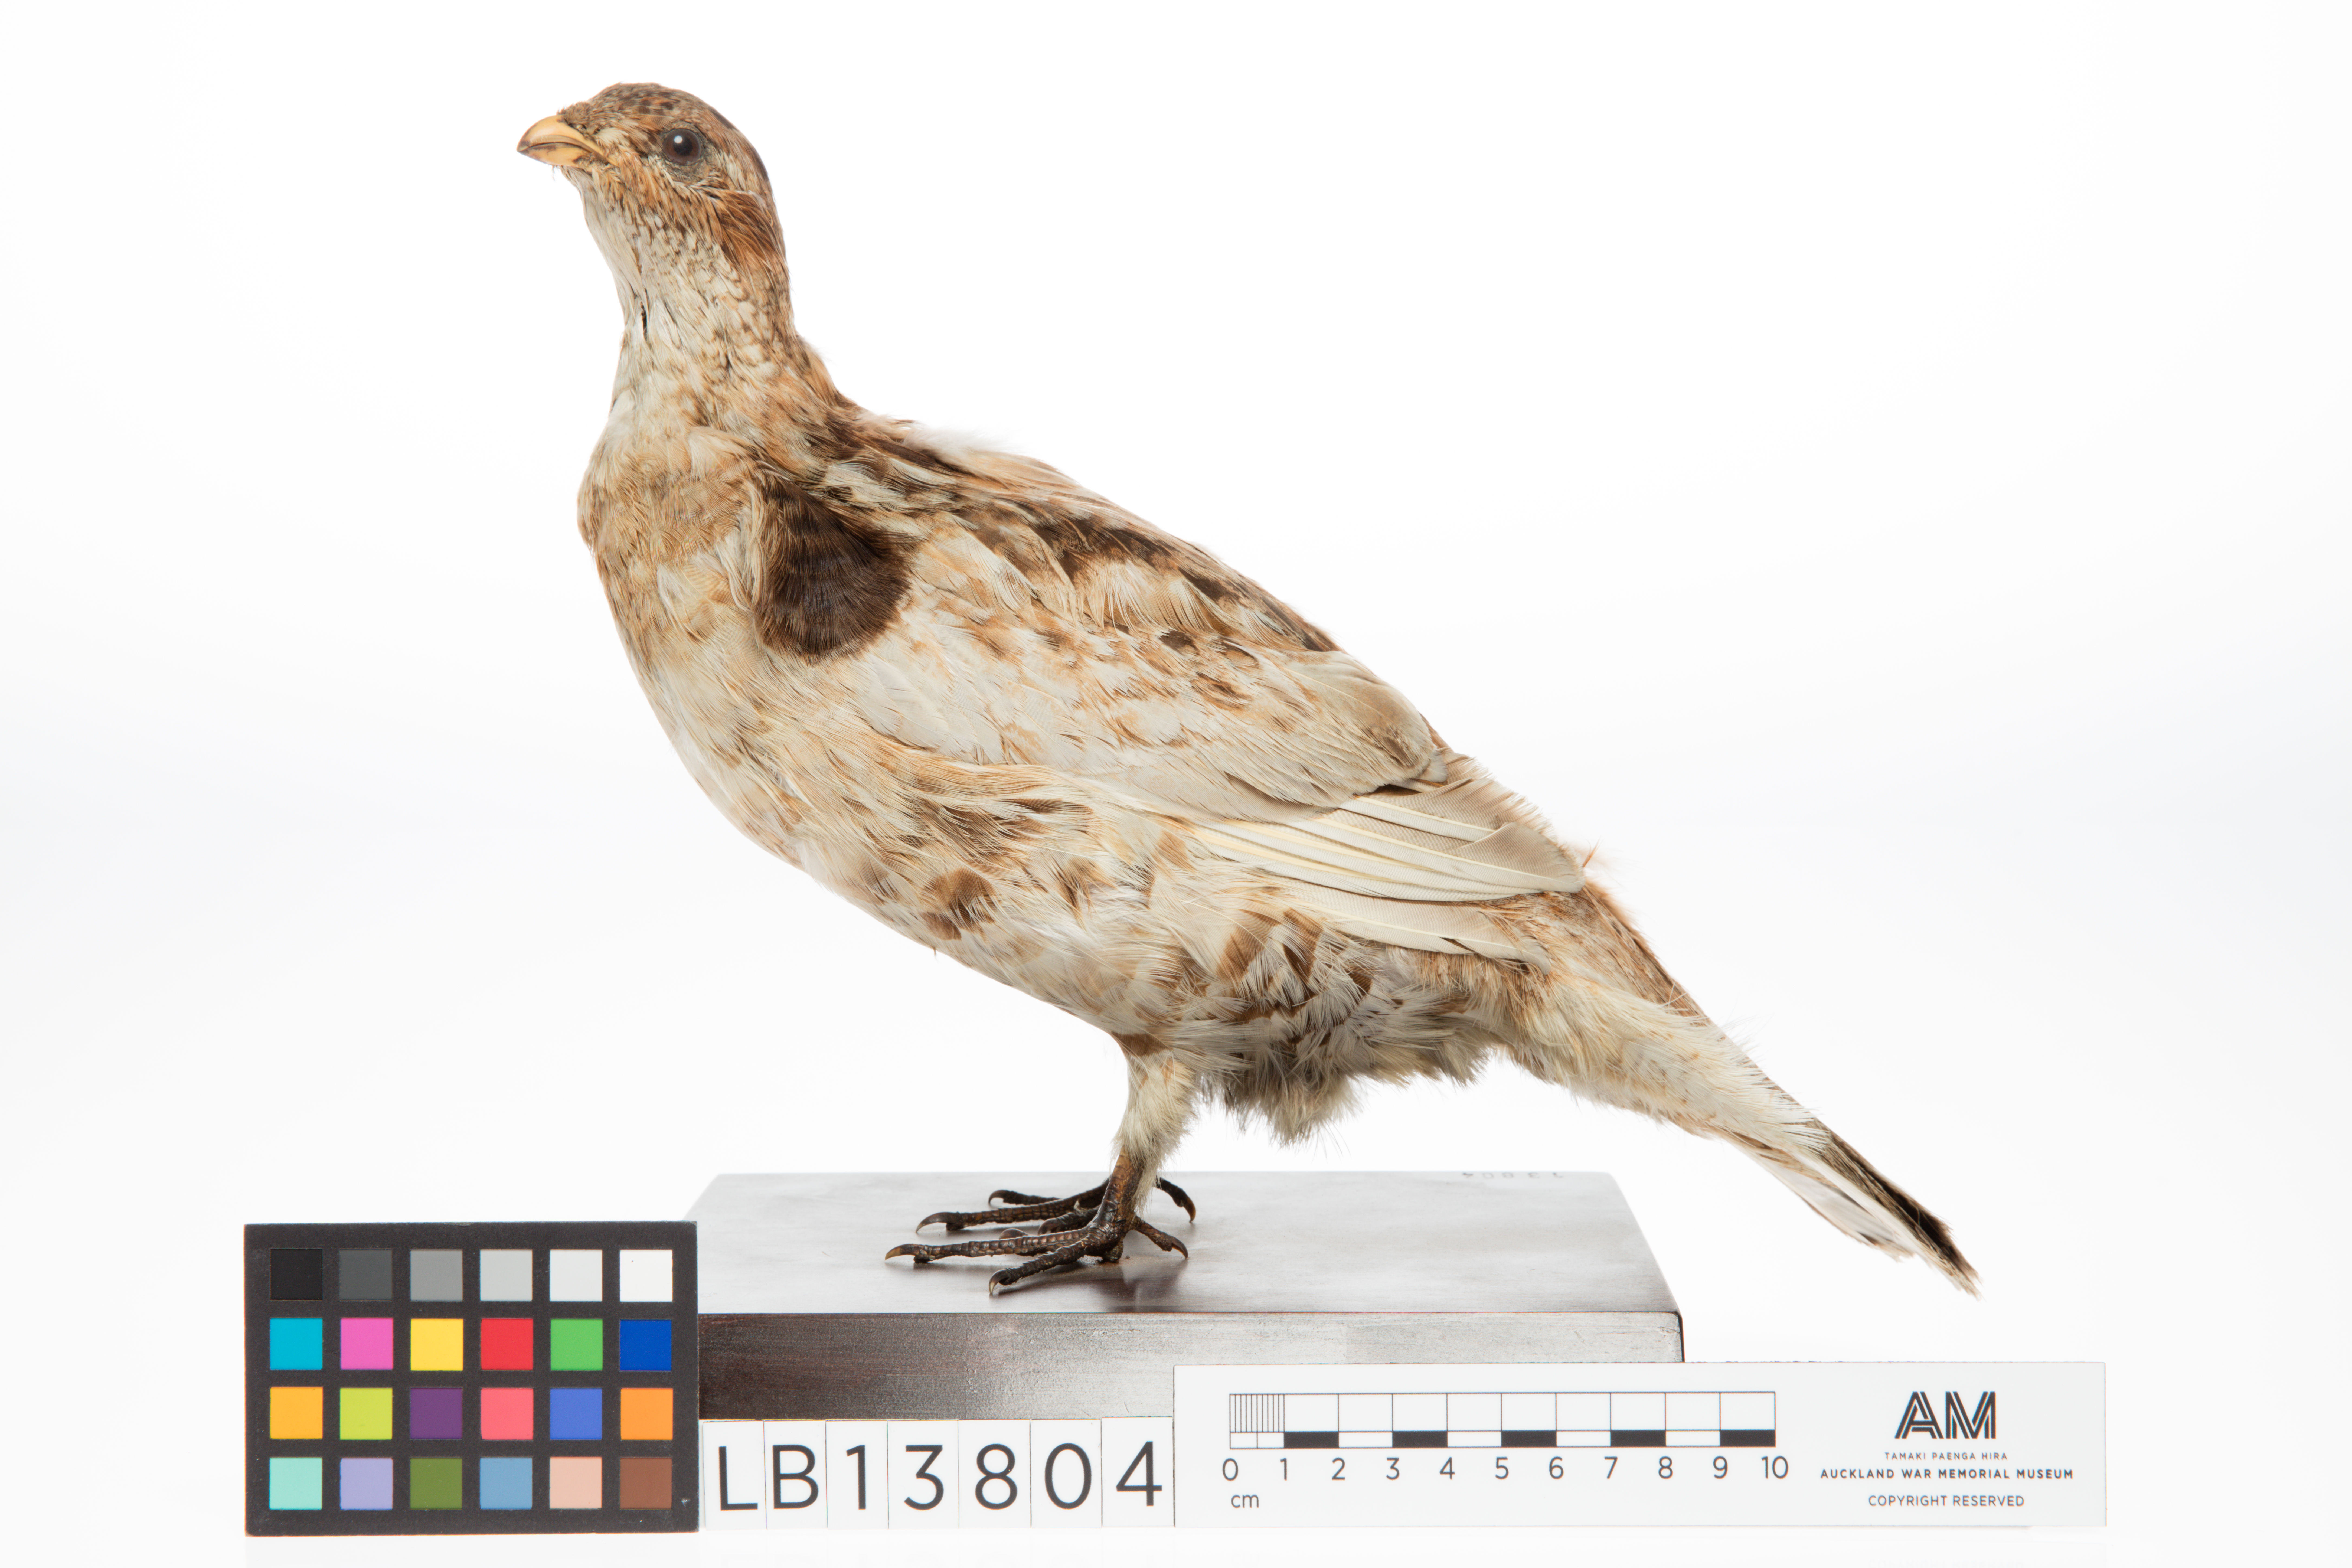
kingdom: Animalia
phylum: Chordata
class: Aves
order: Galliformes
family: Phasianidae
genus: Bonasa
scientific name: Bonasa umbellus
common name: Ruffed grouse
